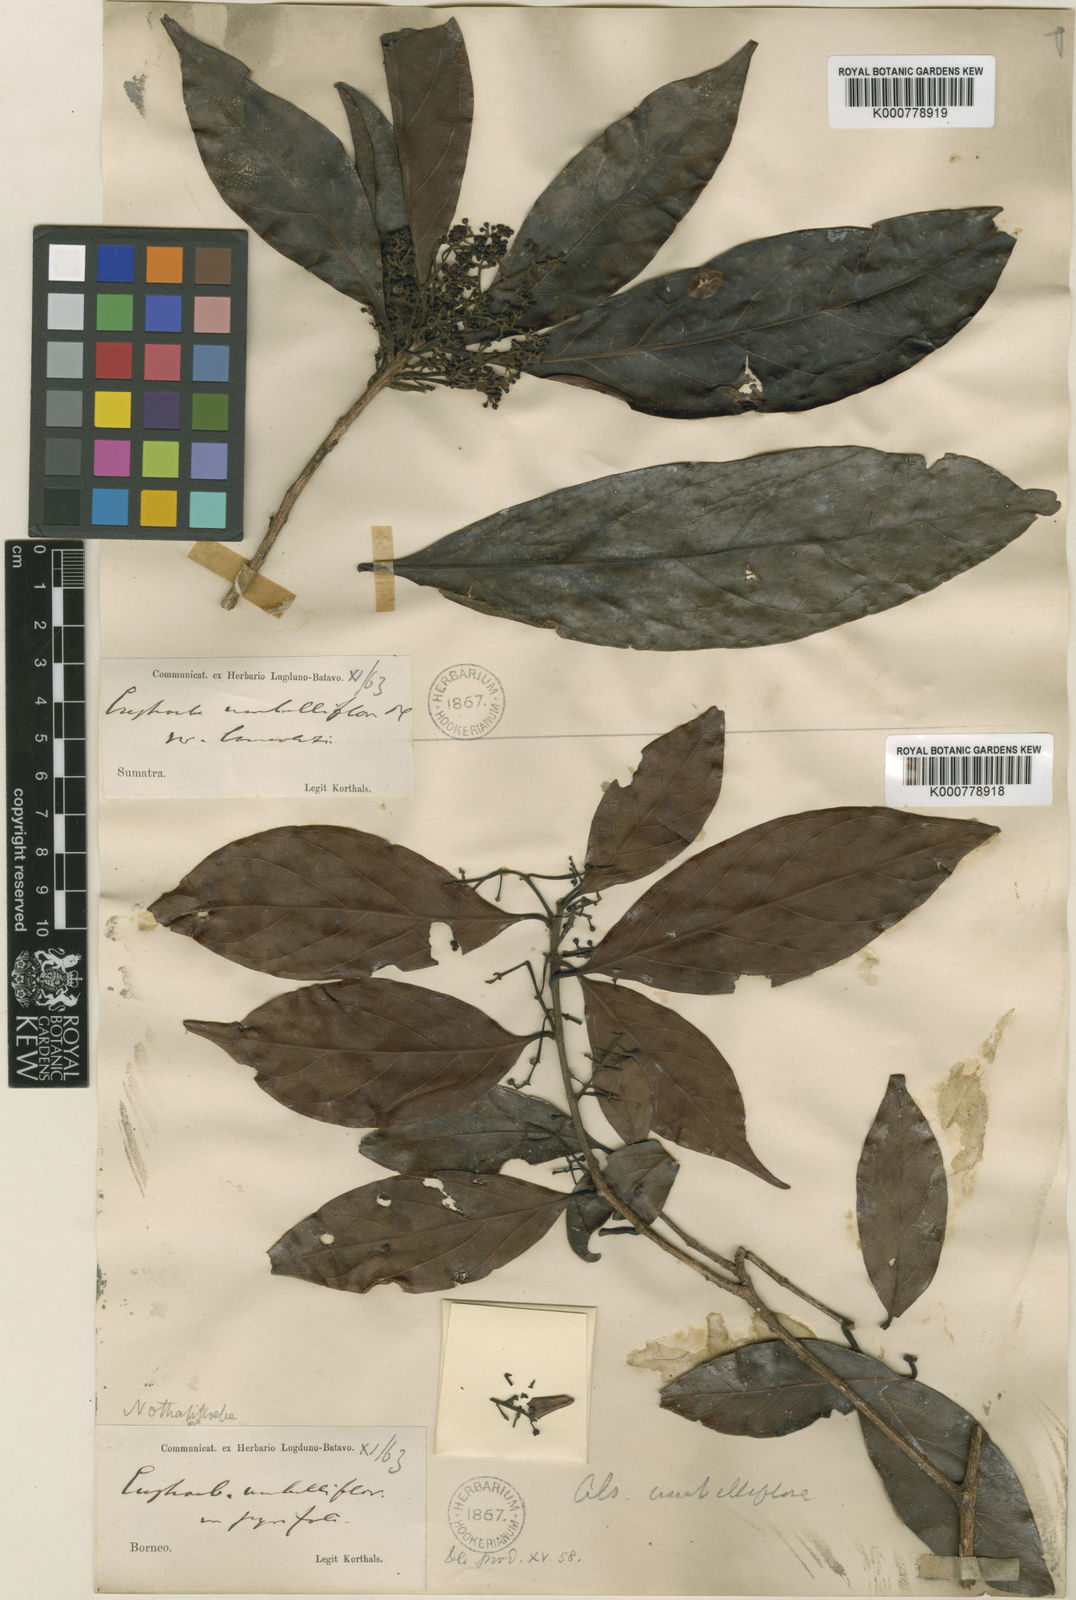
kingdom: Plantae
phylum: Tracheophyta
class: Magnoliopsida
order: Laurales
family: Lauraceae
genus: Nothaphoebe
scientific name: Nothaphoebe umbelliflora
